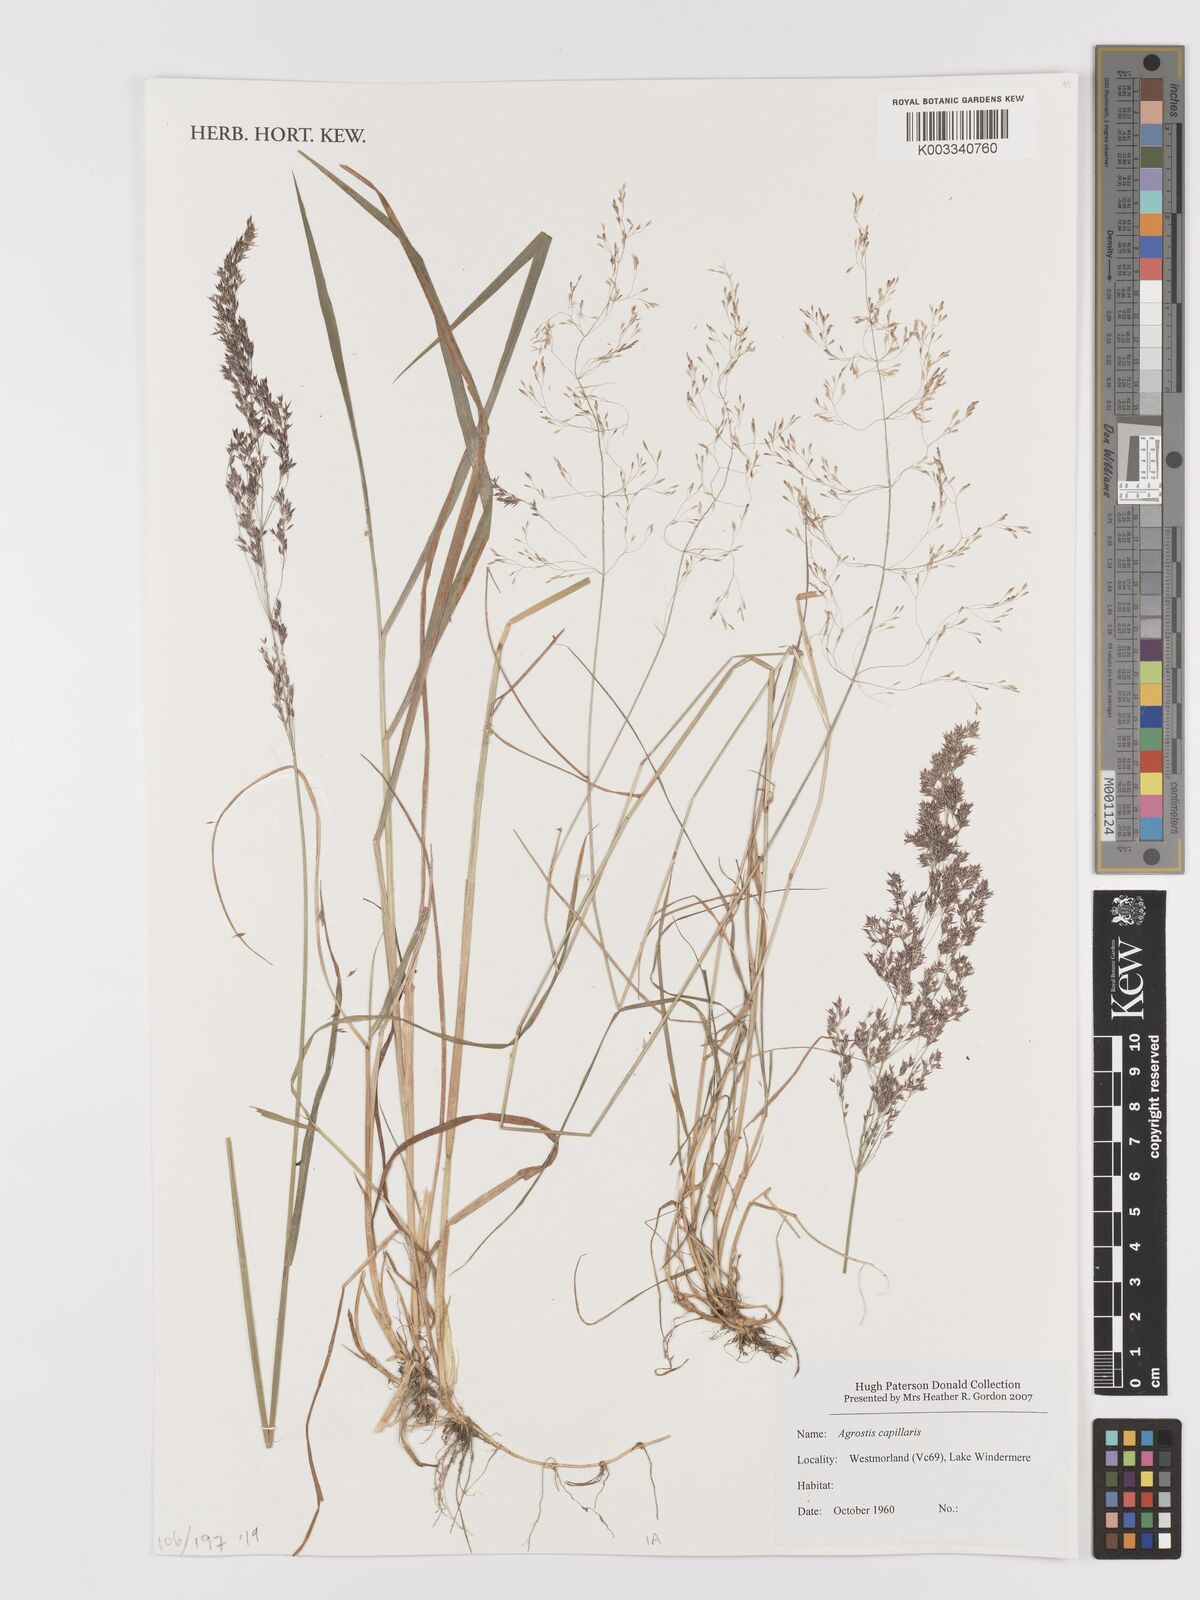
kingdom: Plantae
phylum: Tracheophyta
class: Liliopsida
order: Poales
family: Poaceae
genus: Agrostis
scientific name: Agrostis capillaris
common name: Colonial bentgrass
